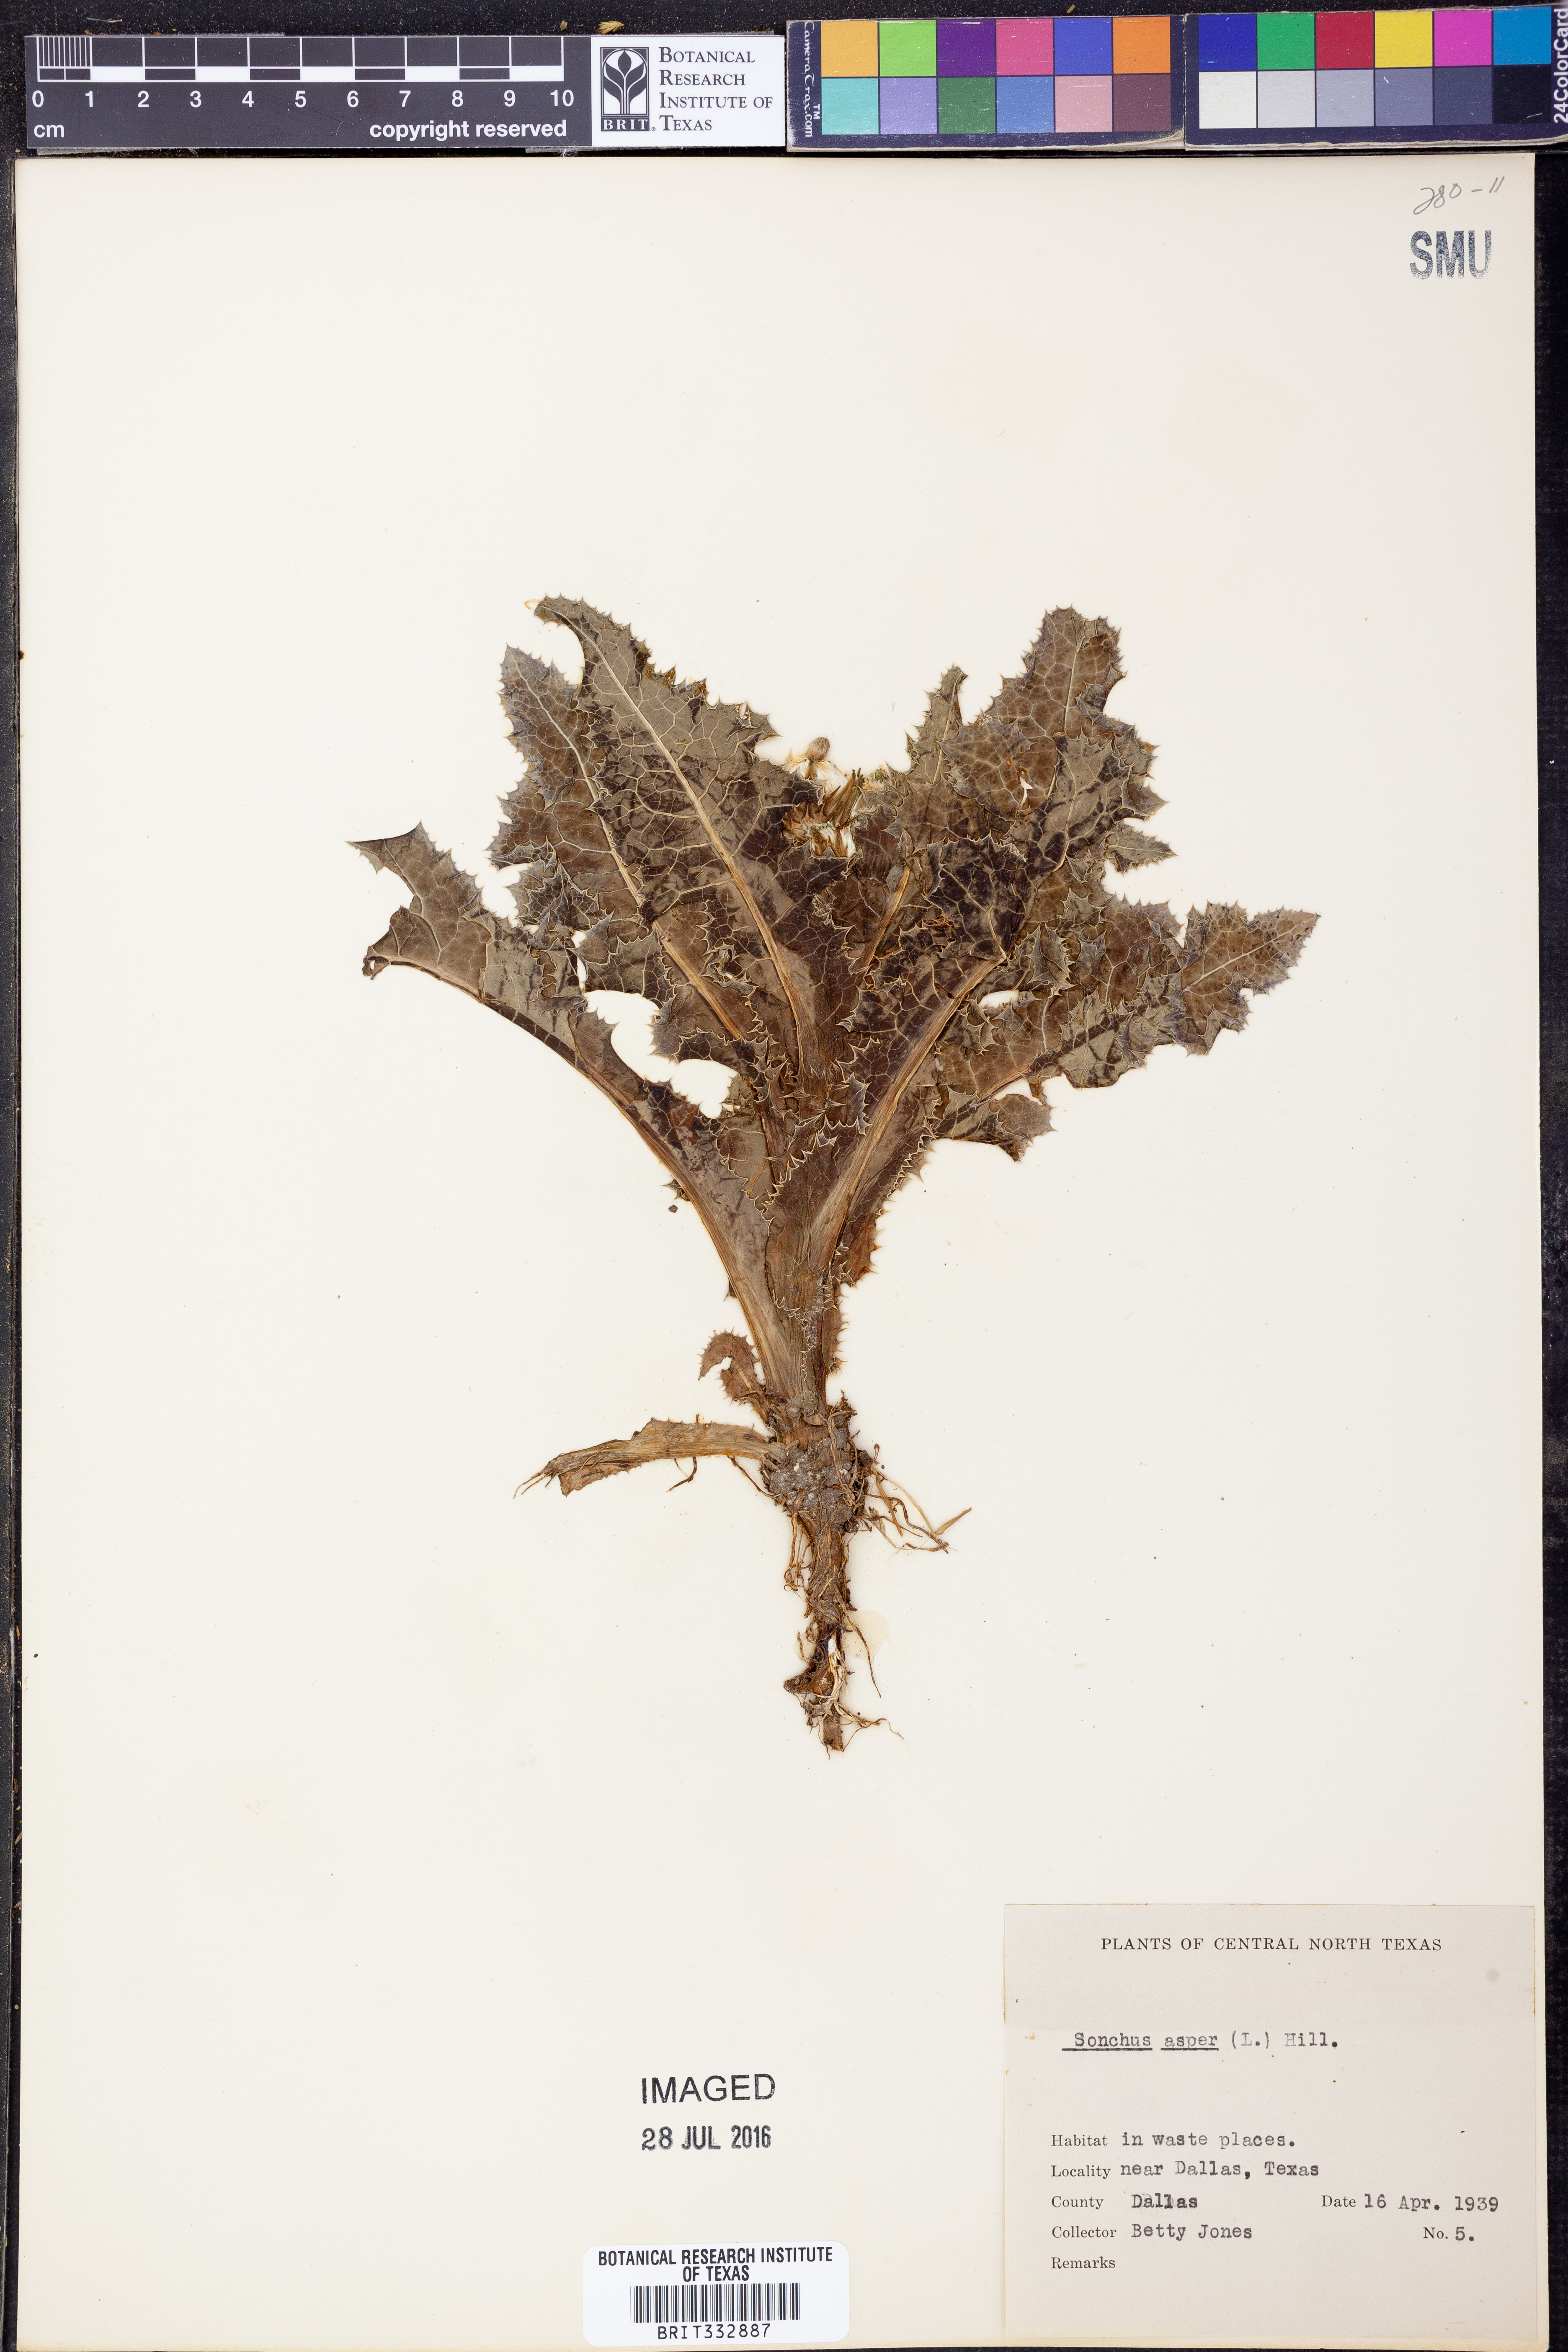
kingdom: Plantae
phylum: Tracheophyta
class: Magnoliopsida
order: Asterales
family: Asteraceae
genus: Sonchus
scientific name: Sonchus asper
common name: Prickly sow-thistle
